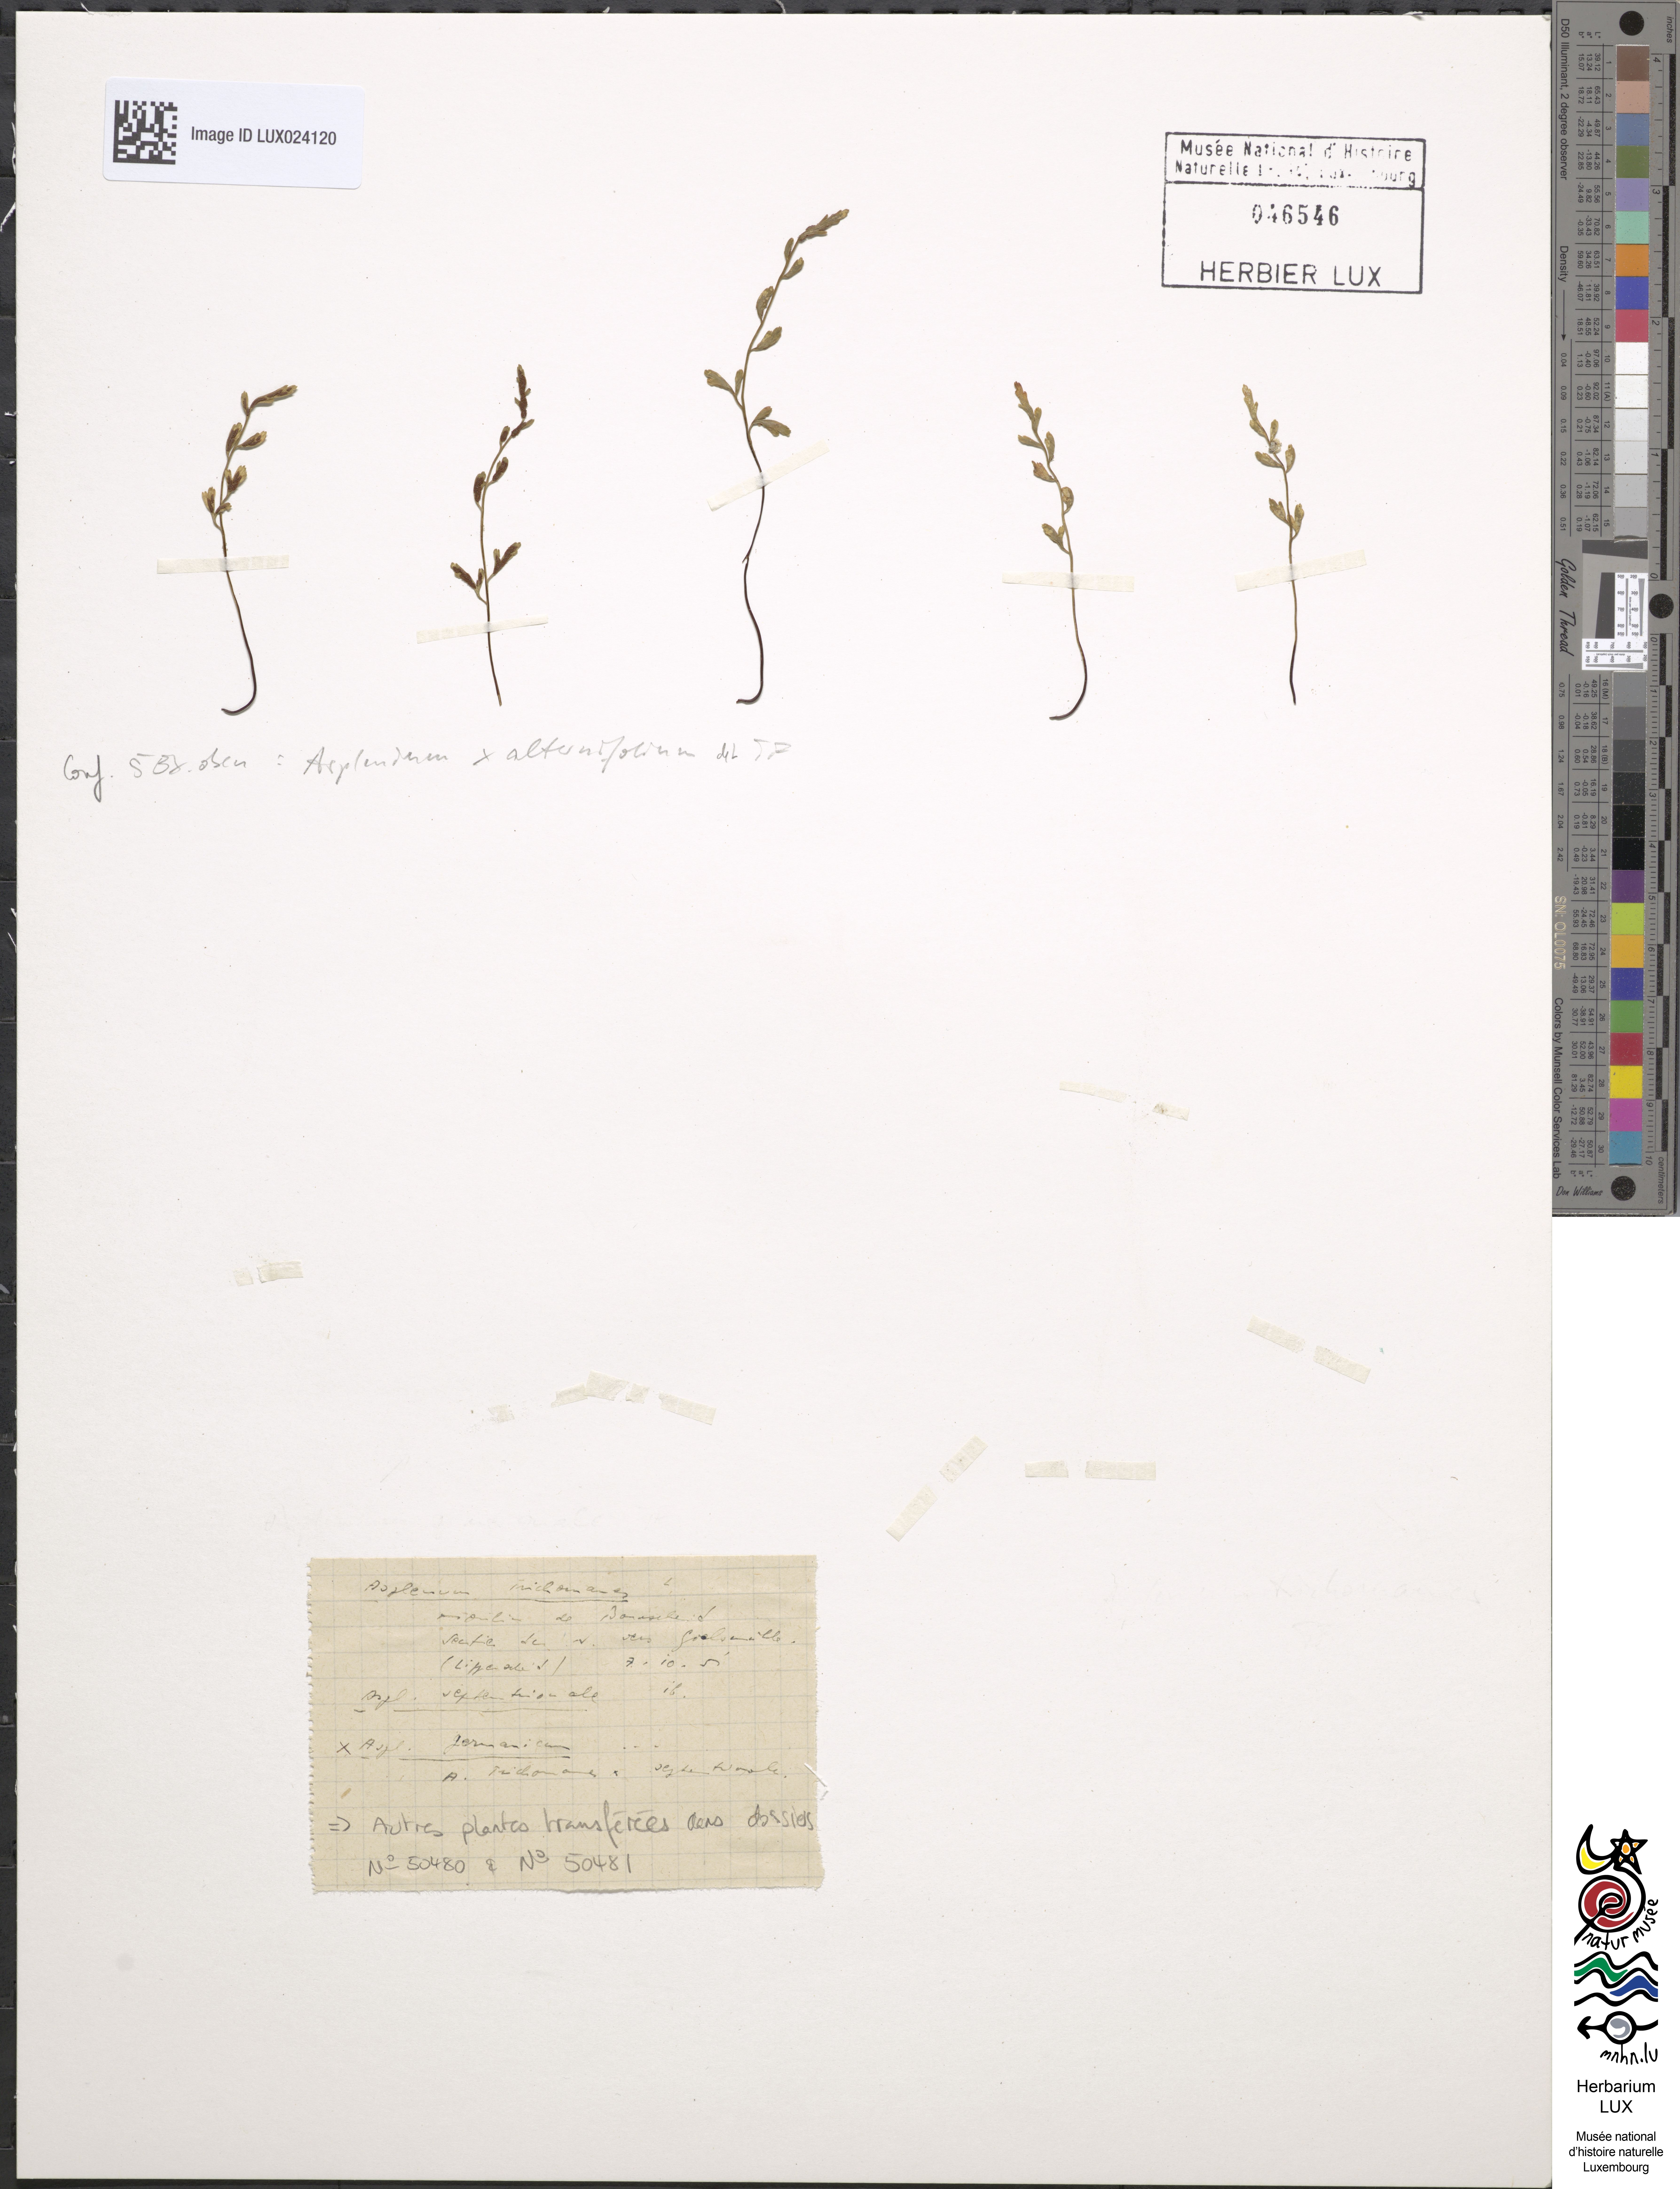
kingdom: Plantae
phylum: Tracheophyta
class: Polypodiopsida
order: Polypodiales
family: Aspleniaceae
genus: Asplenium
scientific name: Asplenium alternifolium
